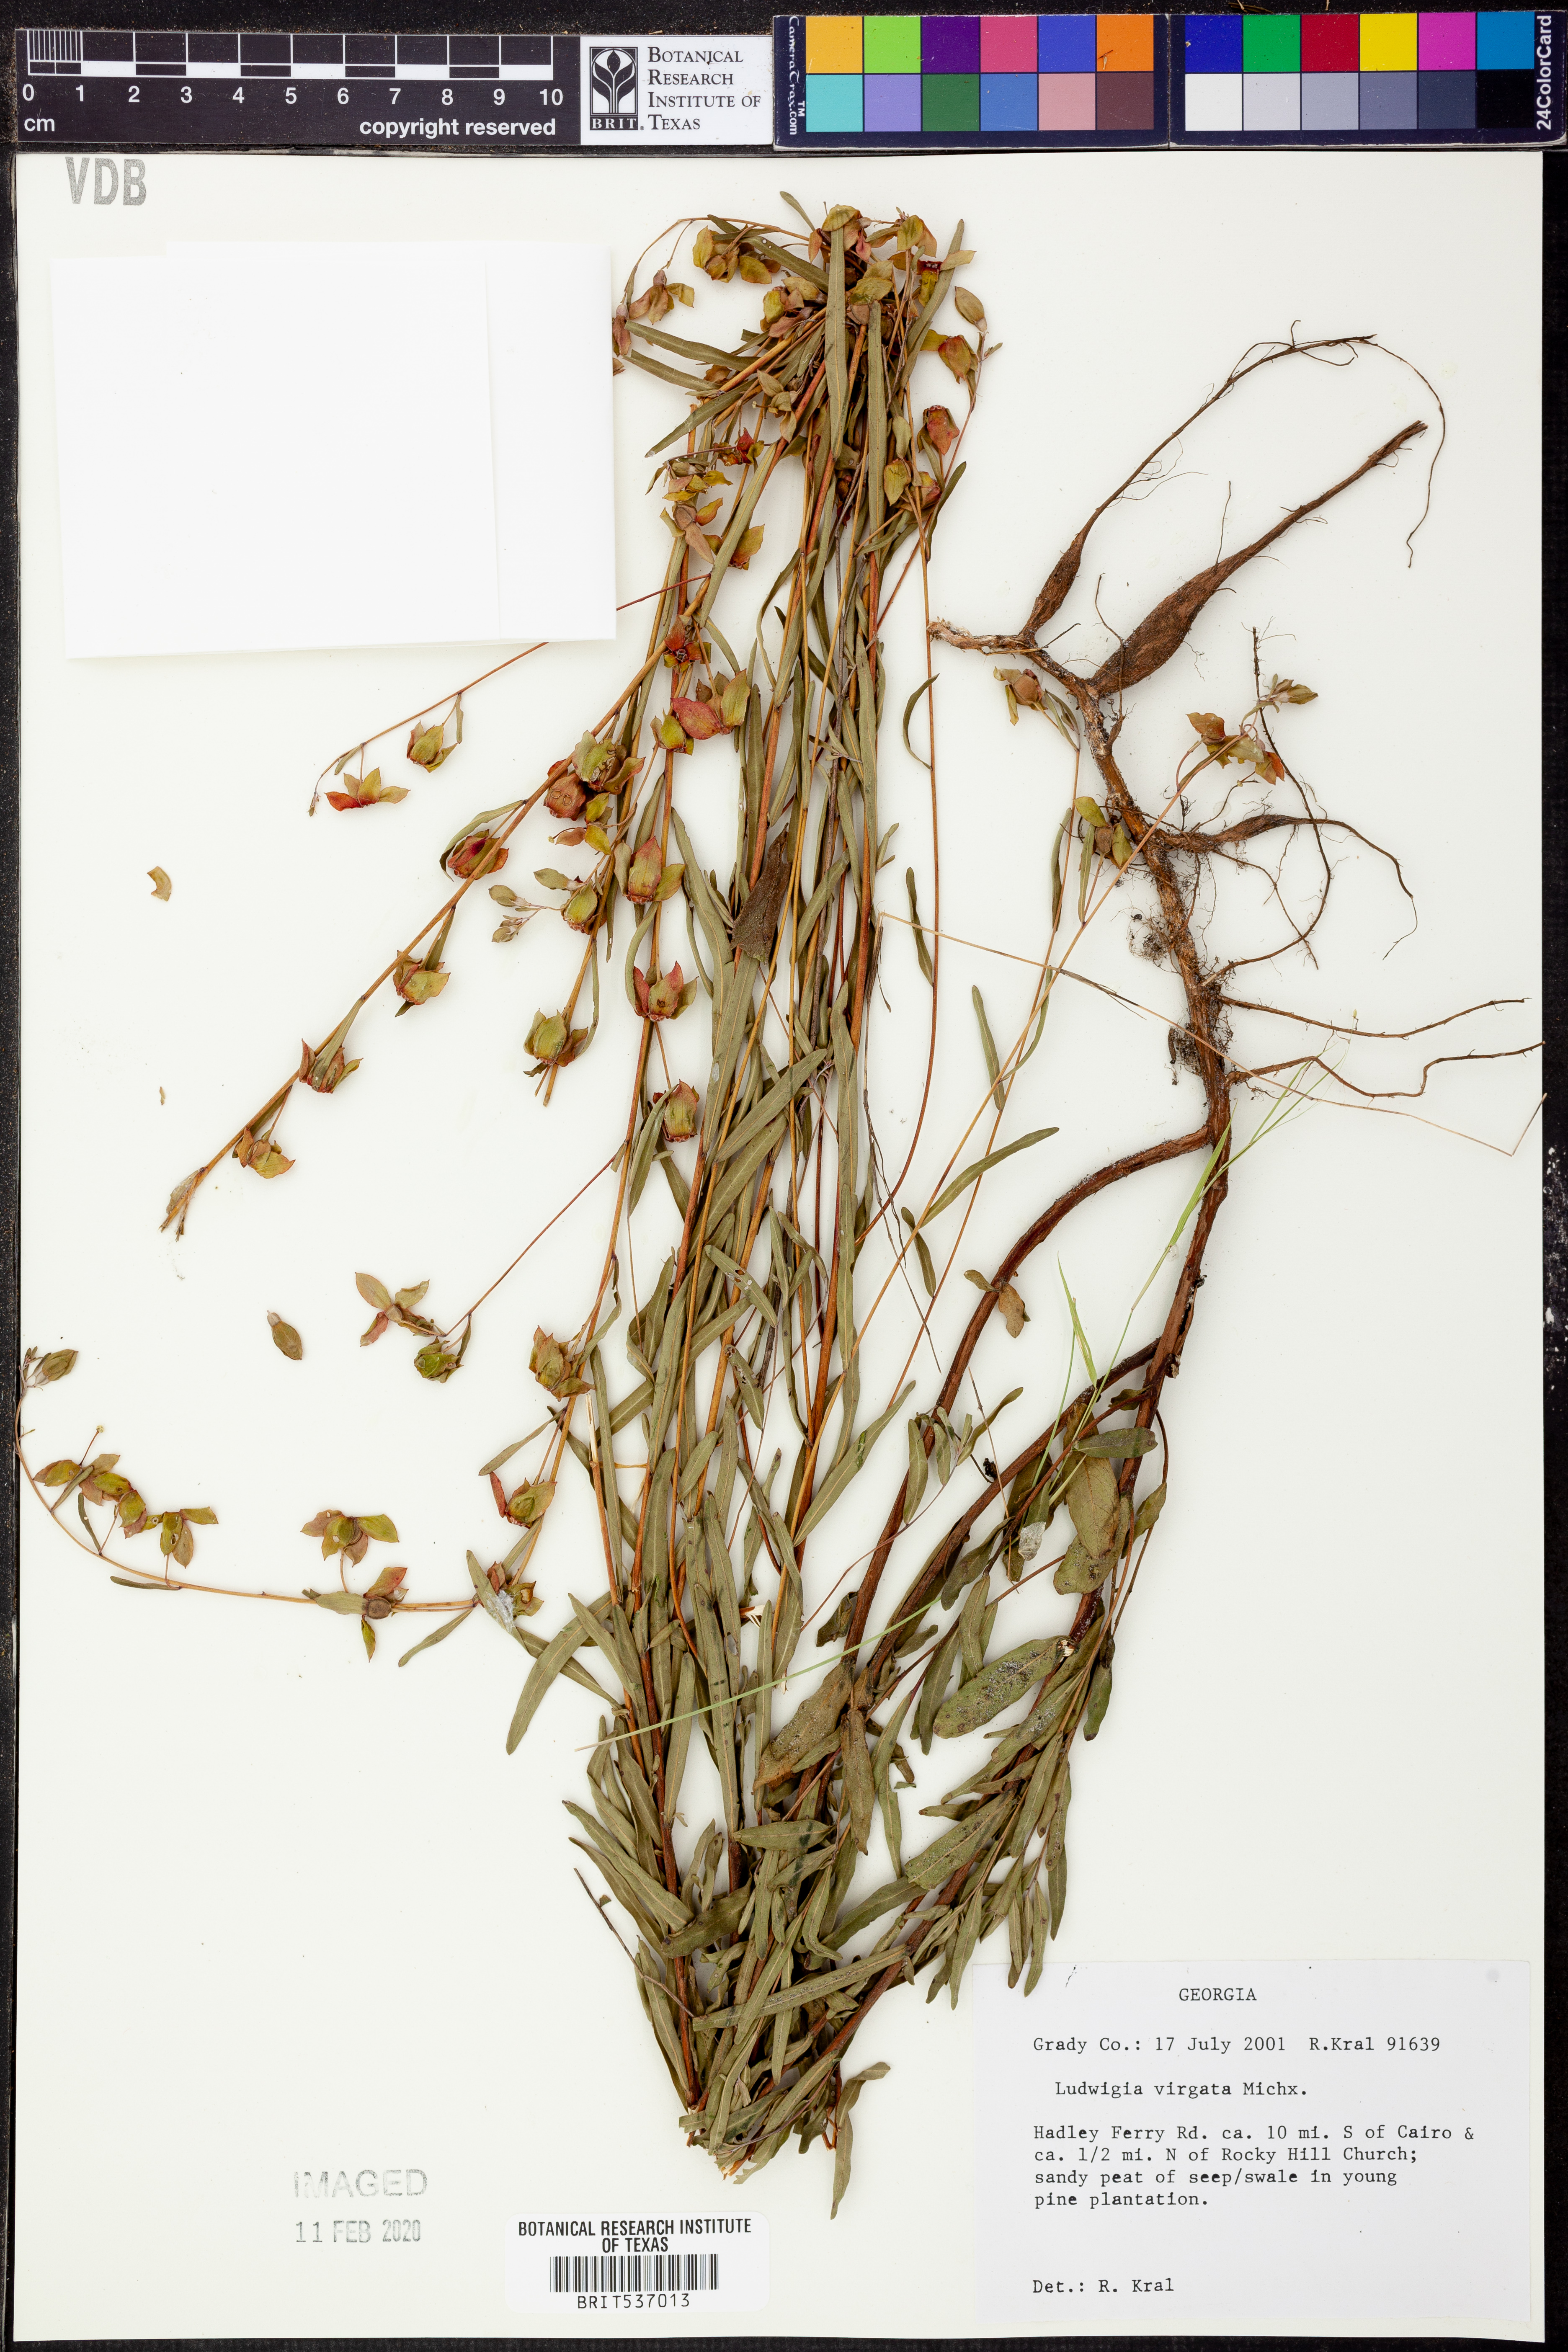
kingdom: Plantae
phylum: Tracheophyta
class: Magnoliopsida
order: Myrtales
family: Onagraceae
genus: Ludwigia
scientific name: Ludwigia virgata
